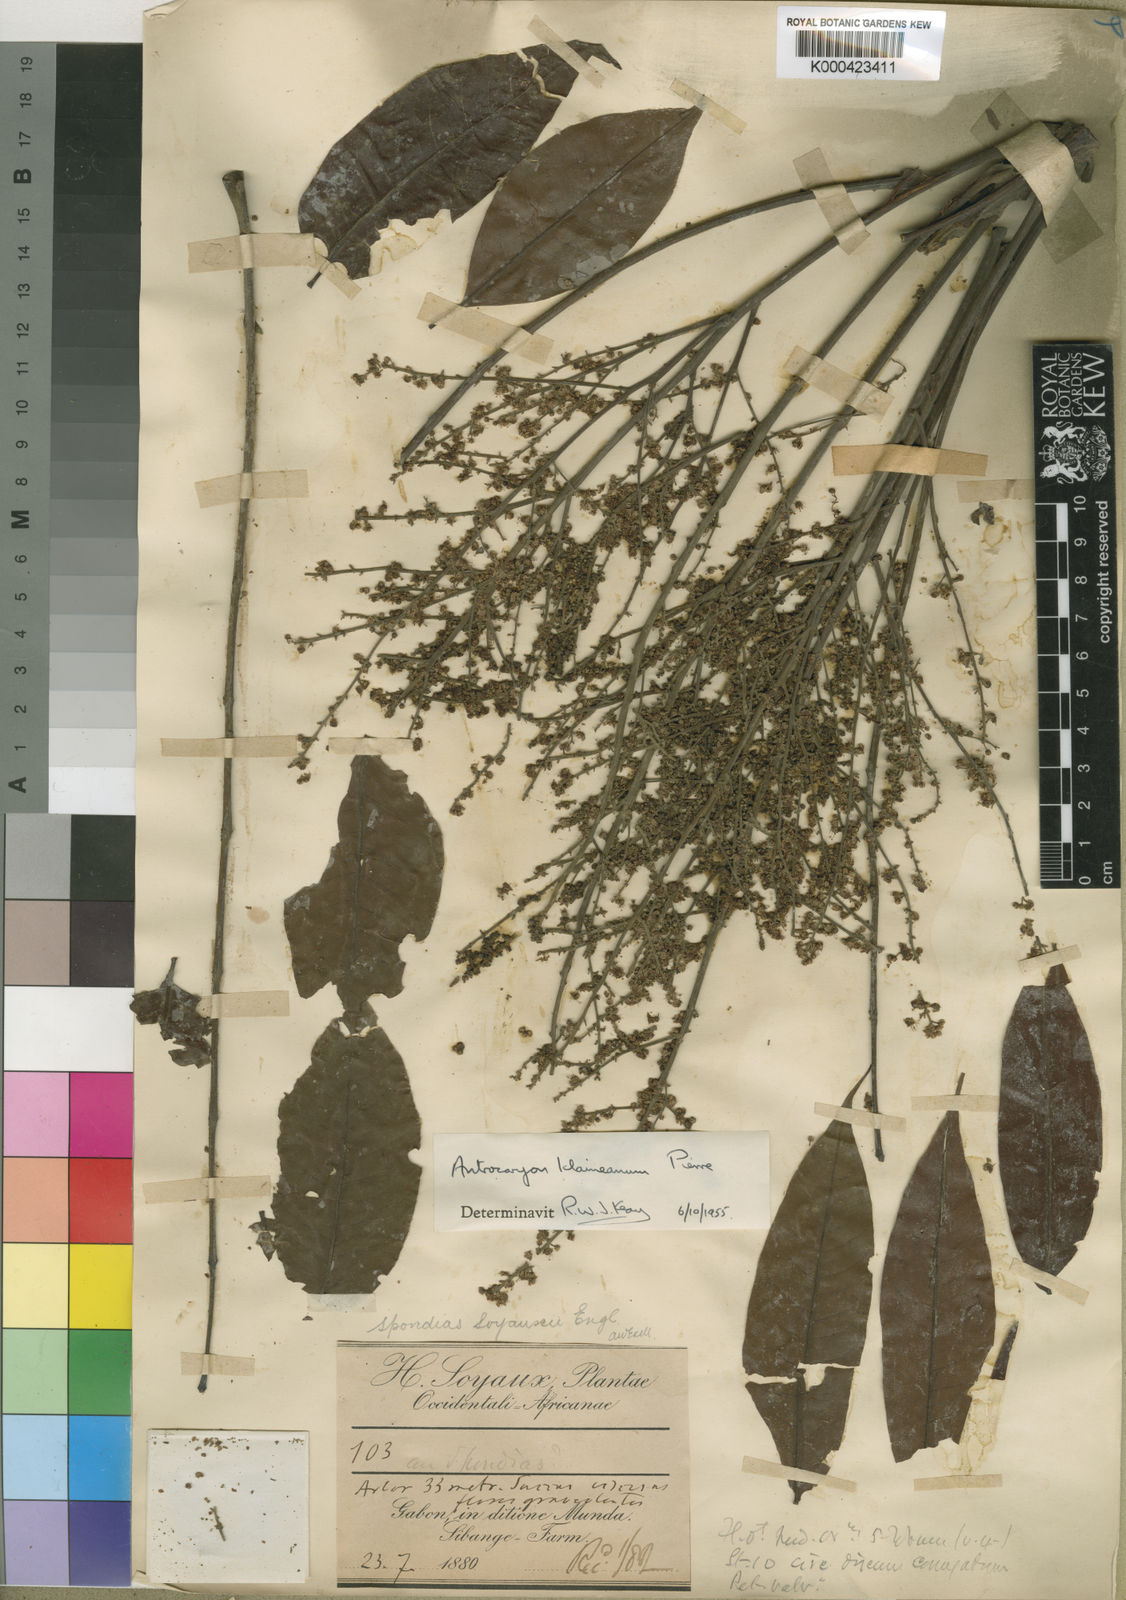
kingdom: Plantae
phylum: Tracheophyta
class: Magnoliopsida
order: Sapindales
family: Anacardiaceae
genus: Antrocaryon
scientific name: Antrocaryon klaineanum
